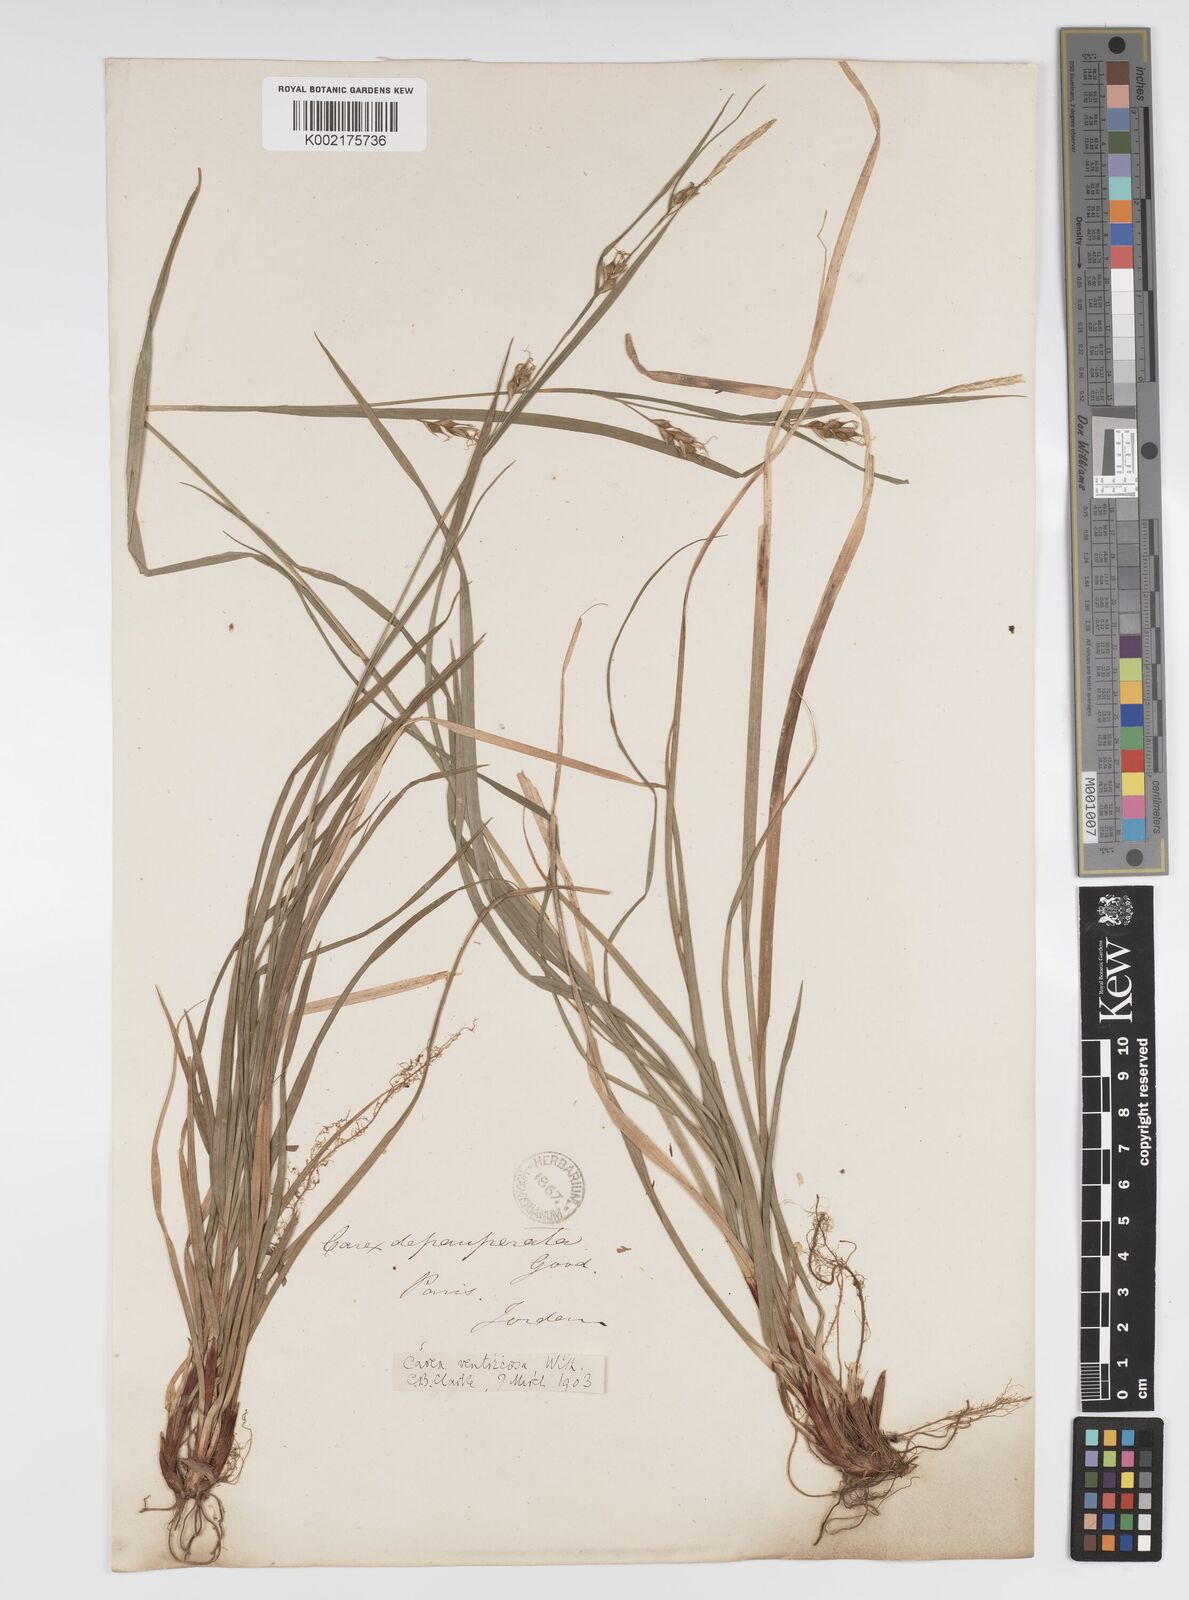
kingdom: Plantae
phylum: Tracheophyta
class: Liliopsida
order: Poales
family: Cyperaceae
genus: Carex
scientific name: Carex
